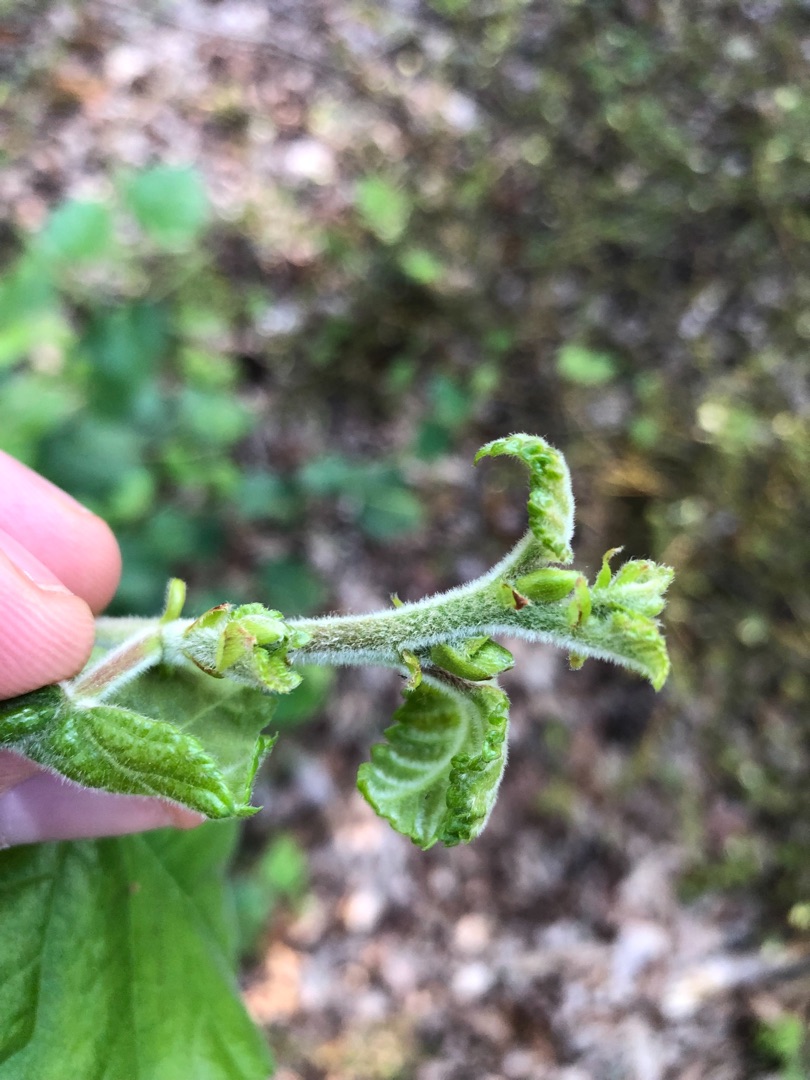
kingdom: Plantae
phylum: Tracheophyta
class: Magnoliopsida
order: Fagales
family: Betulaceae
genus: Betula
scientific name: Betula pubescens
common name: Dun-birk
